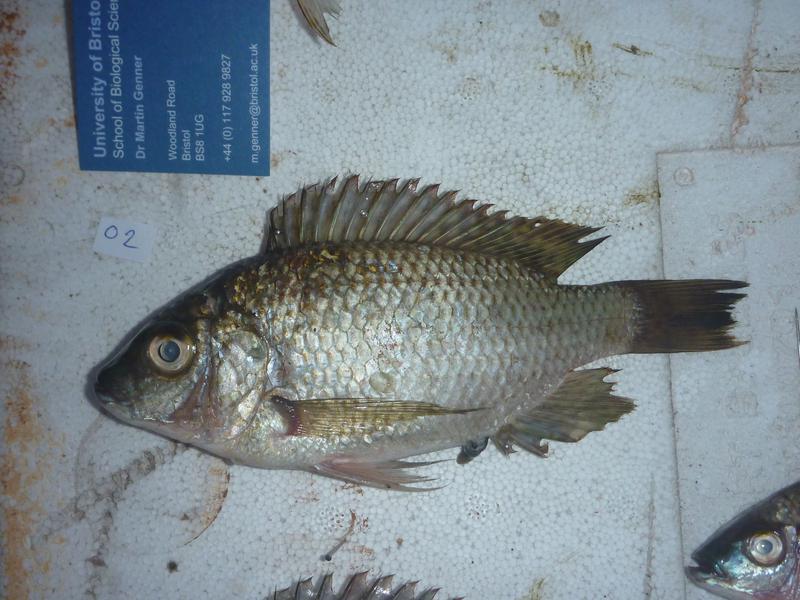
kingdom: Animalia
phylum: Chordata
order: Perciformes
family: Cichlidae
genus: Oreochromis
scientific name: Oreochromis karomo
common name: Karomo
